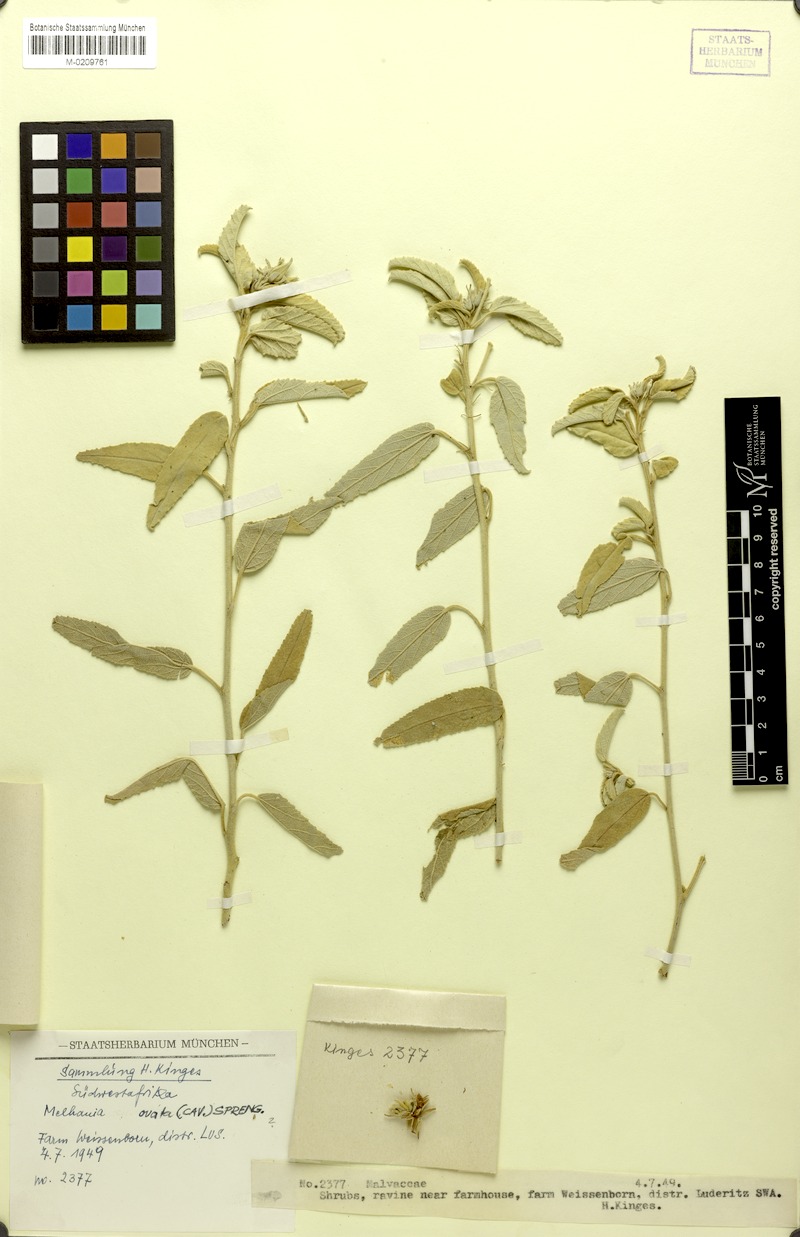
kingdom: Plantae
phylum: Tracheophyta
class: Magnoliopsida
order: Malvales
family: Malvaceae
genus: Melhania
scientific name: Melhania ovata
